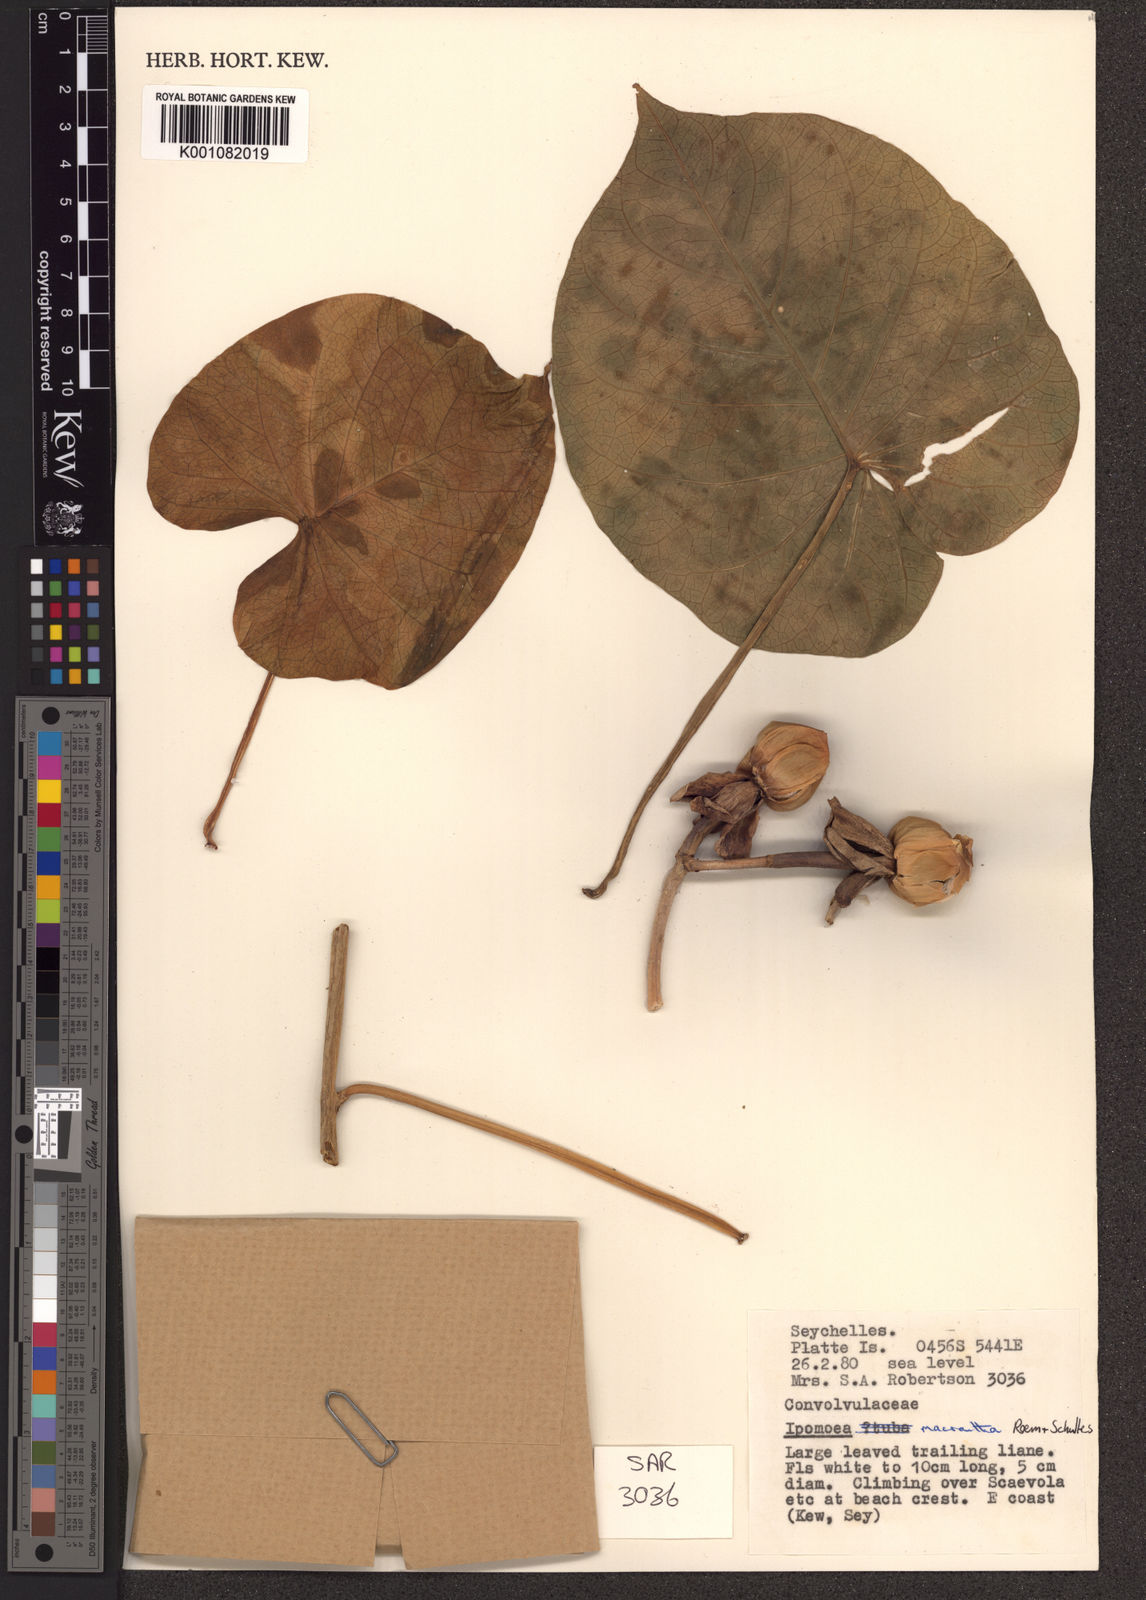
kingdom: Plantae
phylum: Tracheophyta
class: Magnoliopsida
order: Solanales
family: Convolvulaceae
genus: Ipomoea
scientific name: Ipomoea violacea
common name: Beach moonflower
